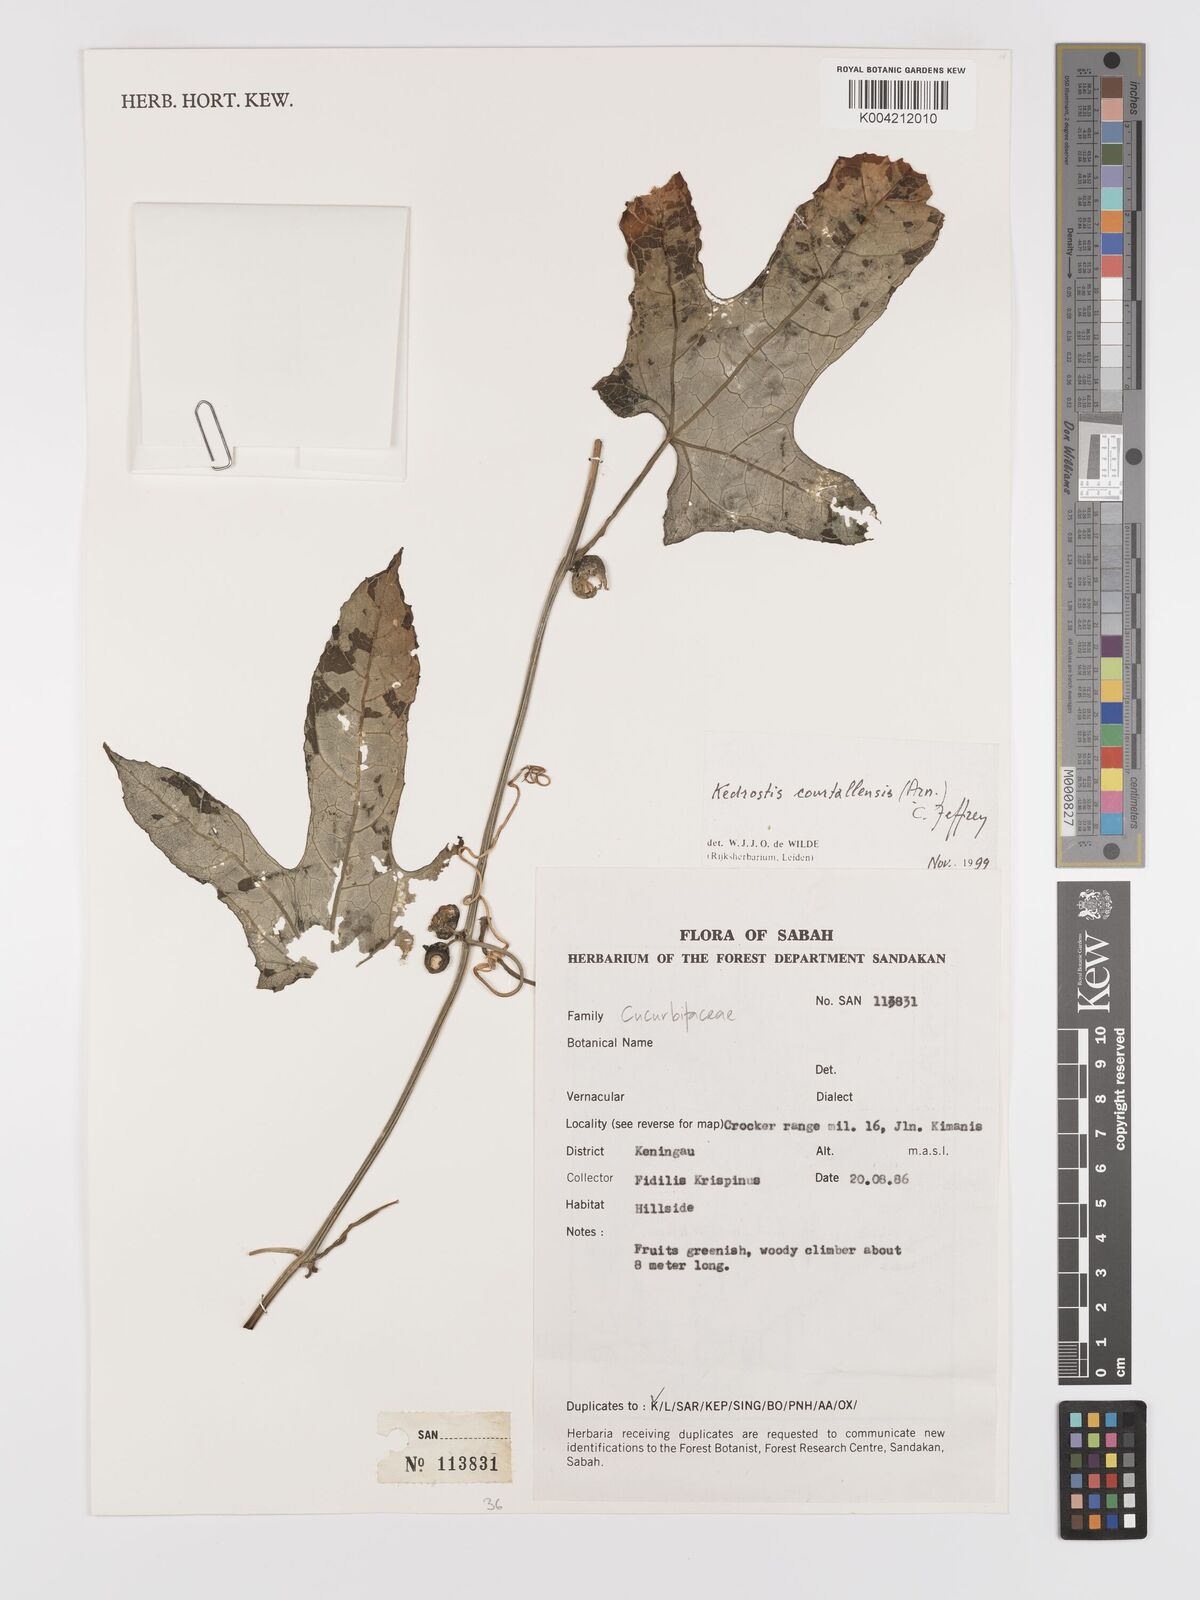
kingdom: Plantae
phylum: Tracheophyta
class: Magnoliopsida
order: Cucurbitales
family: Cucurbitaceae
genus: Kedrostis
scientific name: Kedrostis courtallensis
